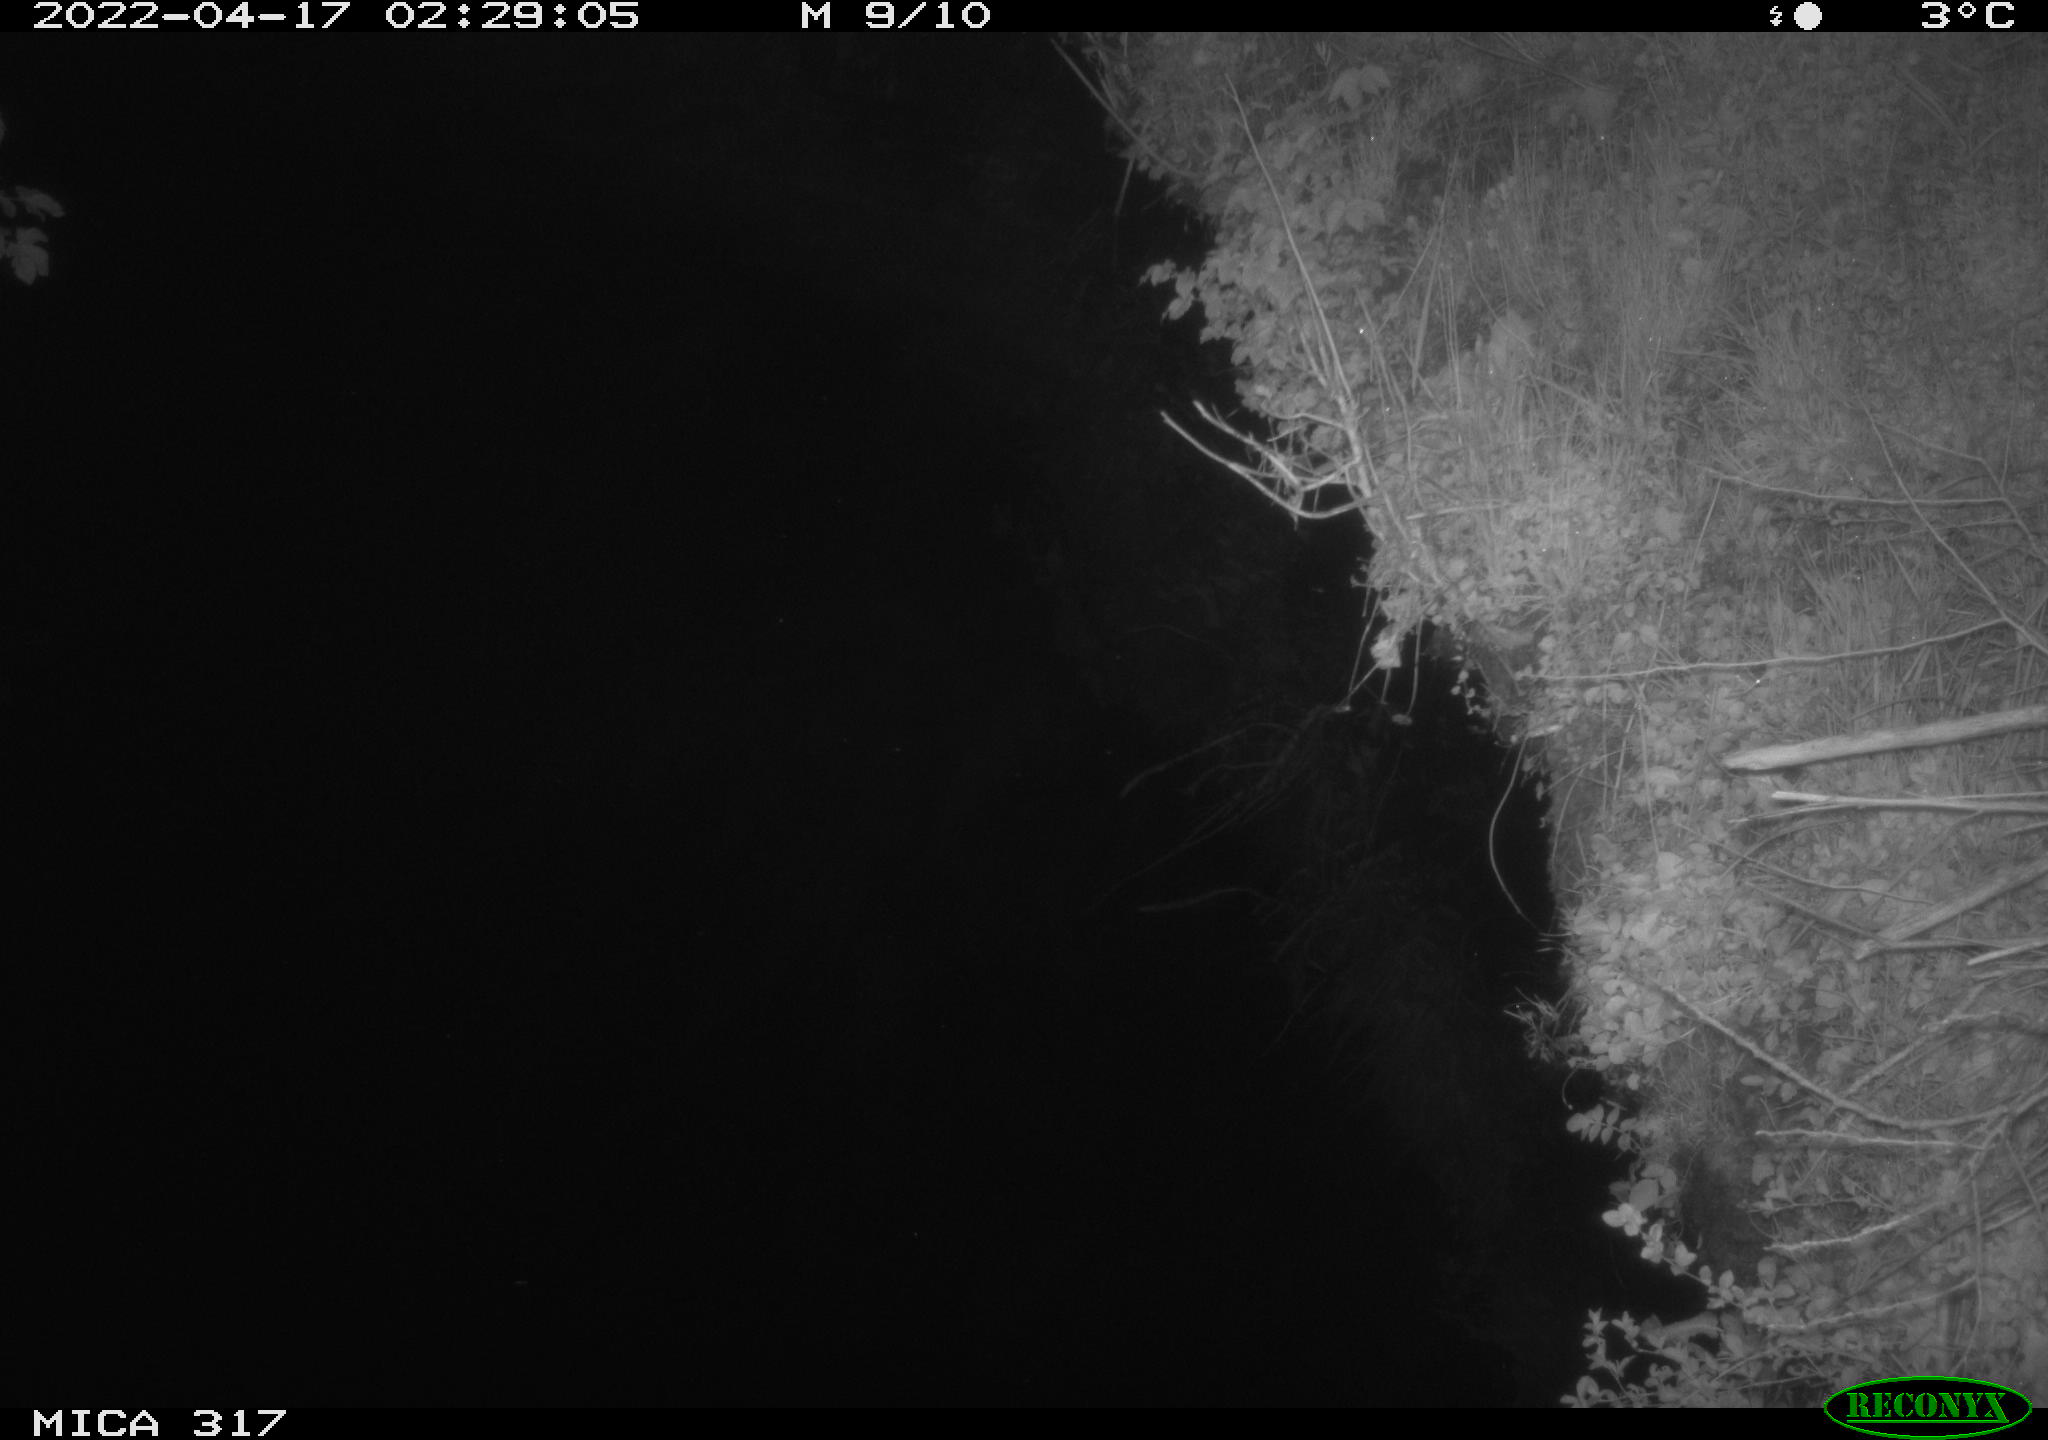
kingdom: Animalia
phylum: Chordata
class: Aves
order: Anseriformes
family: Anatidae
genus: Anas
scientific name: Anas platyrhynchos
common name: Mallard
